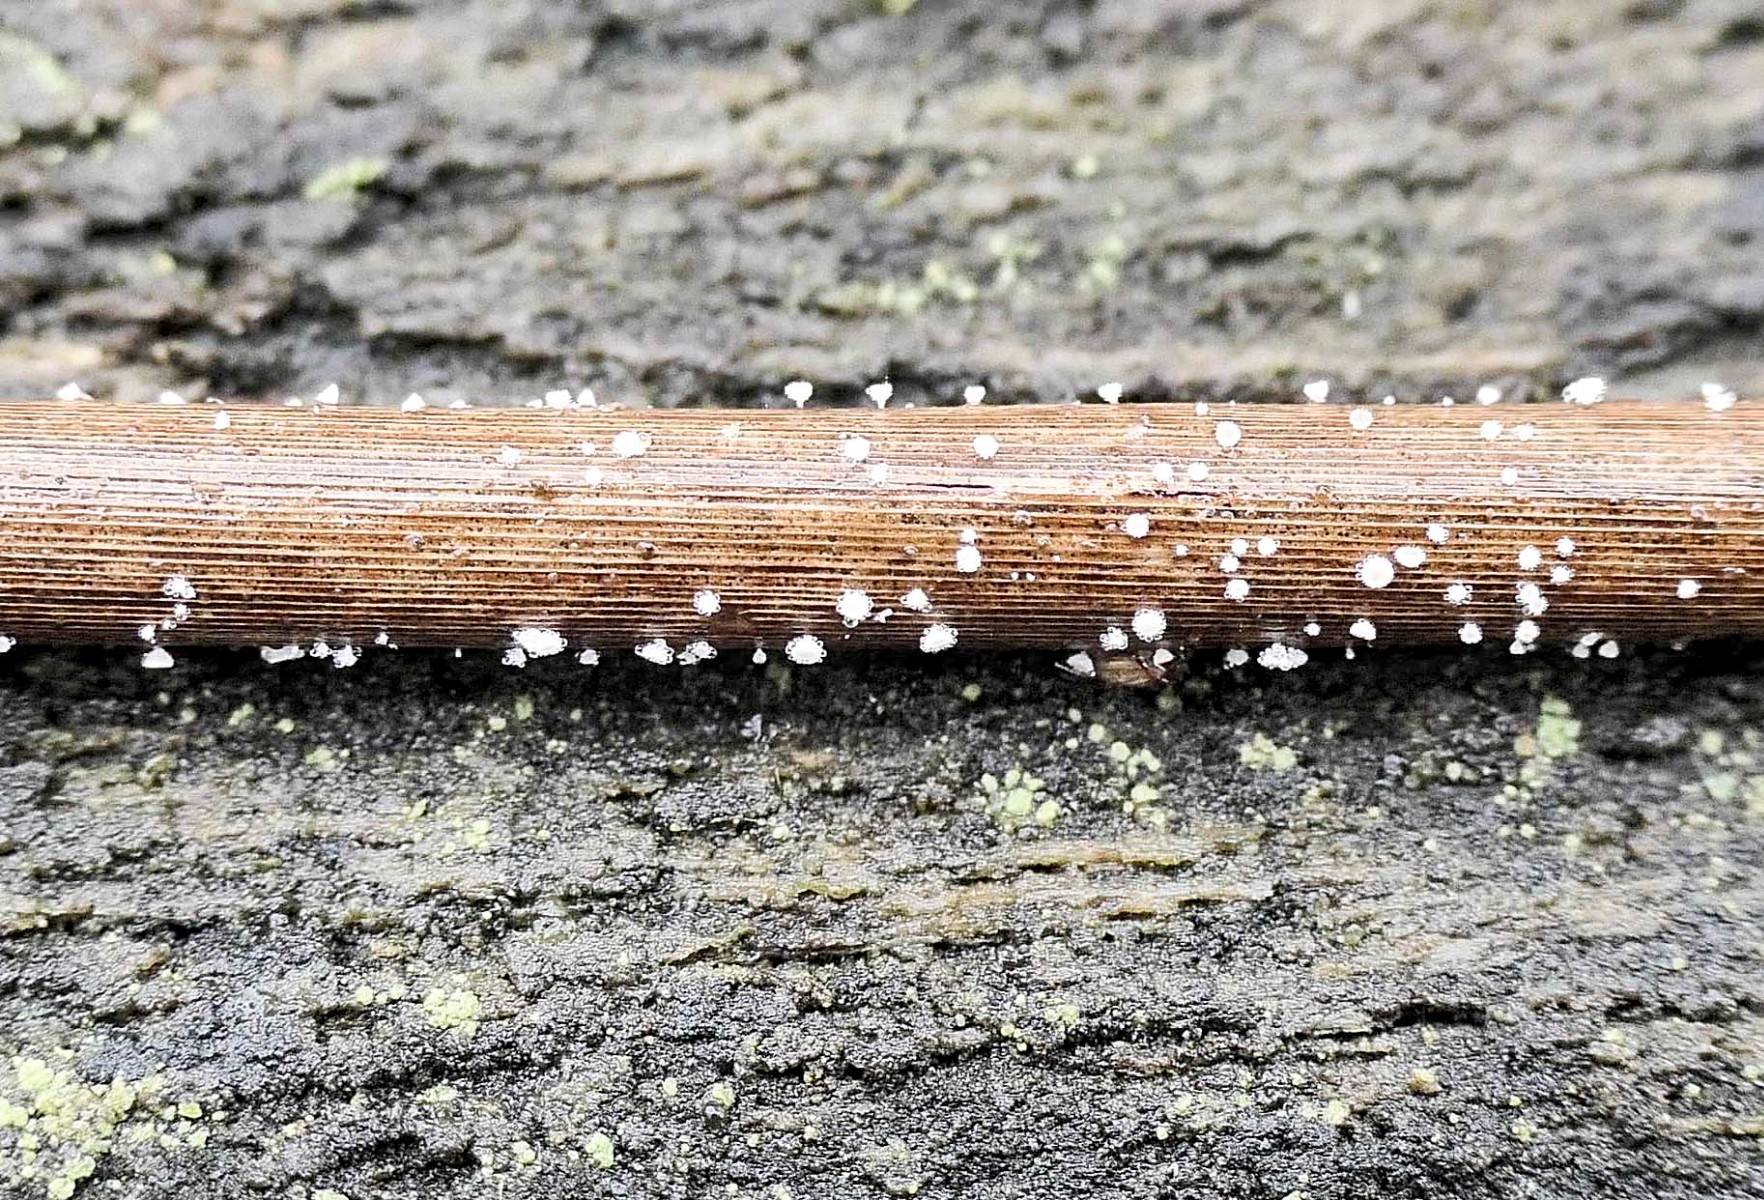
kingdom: Fungi
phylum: Ascomycota
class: Leotiomycetes
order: Helotiales
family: Lachnaceae
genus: Lachnum
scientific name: Lachnum apalum
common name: siv-frynseskive
